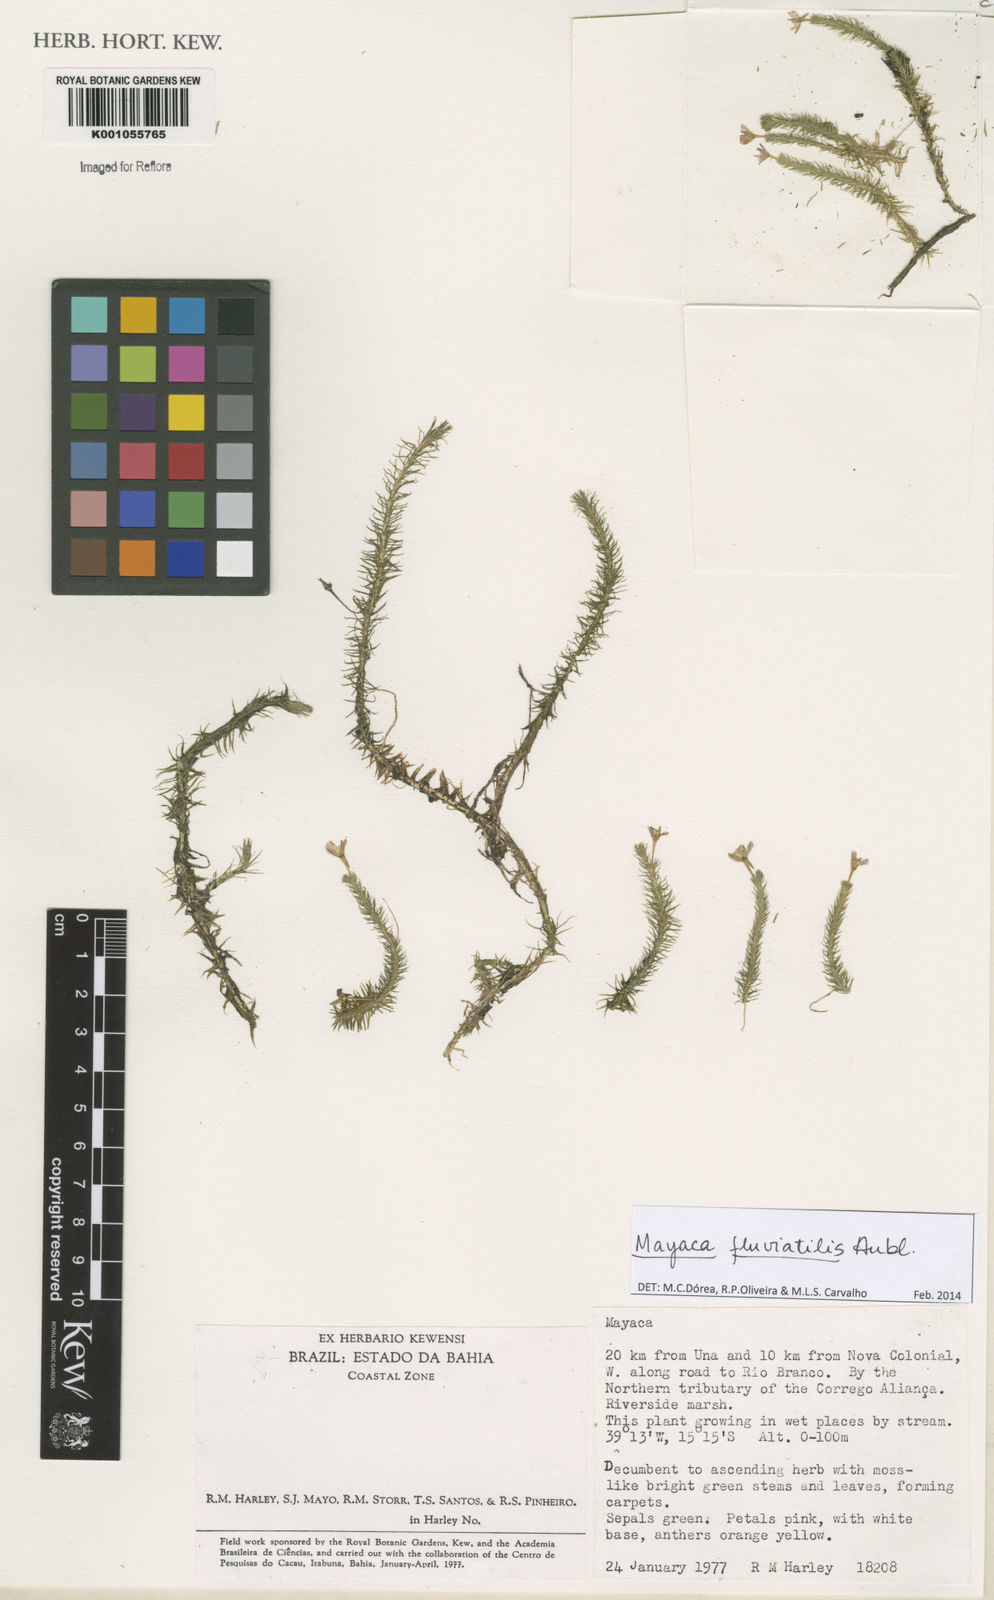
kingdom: Plantae
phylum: Tracheophyta
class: Liliopsida
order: Poales
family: Mayacaceae
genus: Mayaca
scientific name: Mayaca
